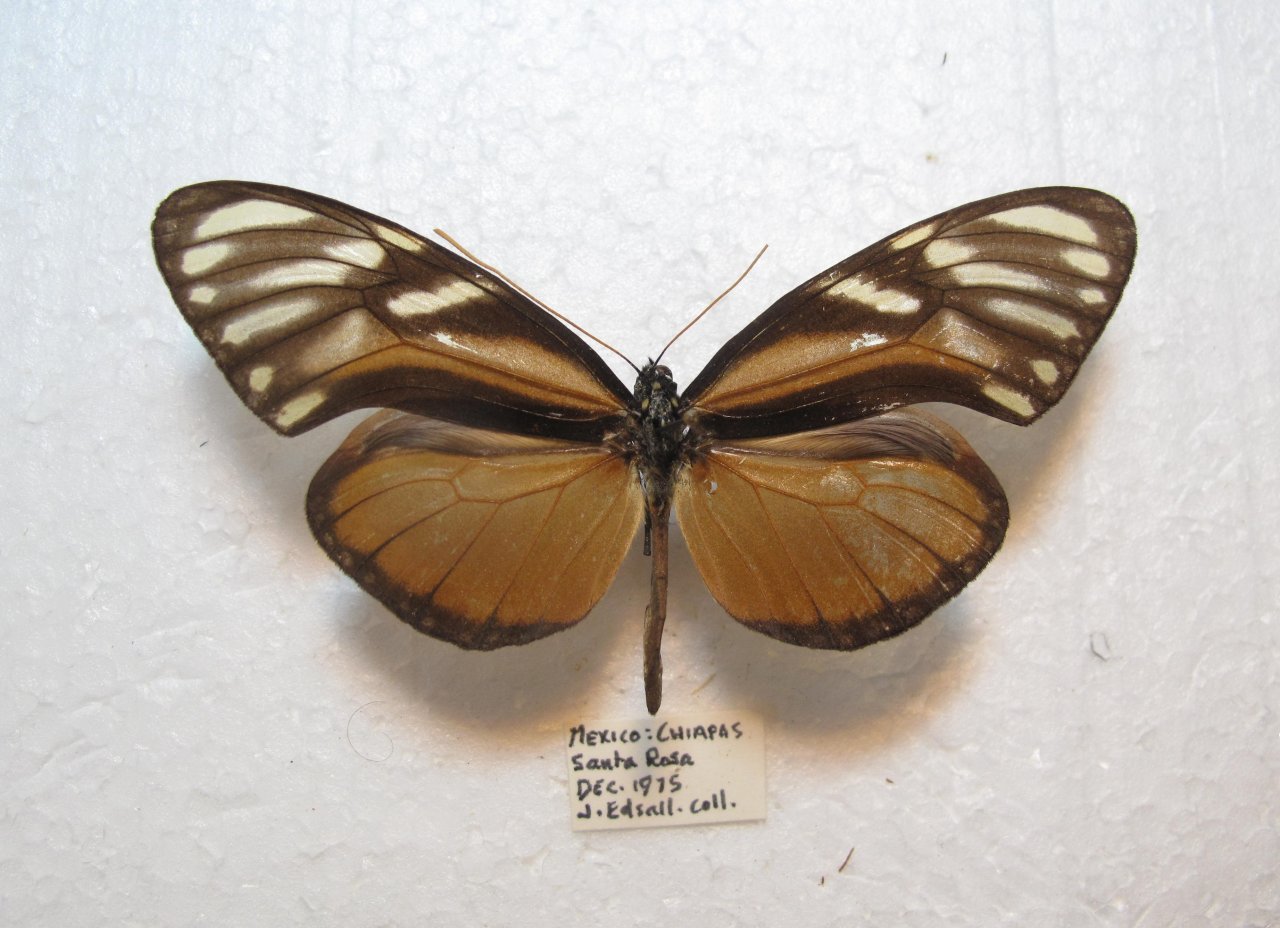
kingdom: Animalia
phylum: Arthropoda
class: Insecta
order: Lepidoptera
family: Nymphalidae
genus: Olyras
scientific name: Olyras
